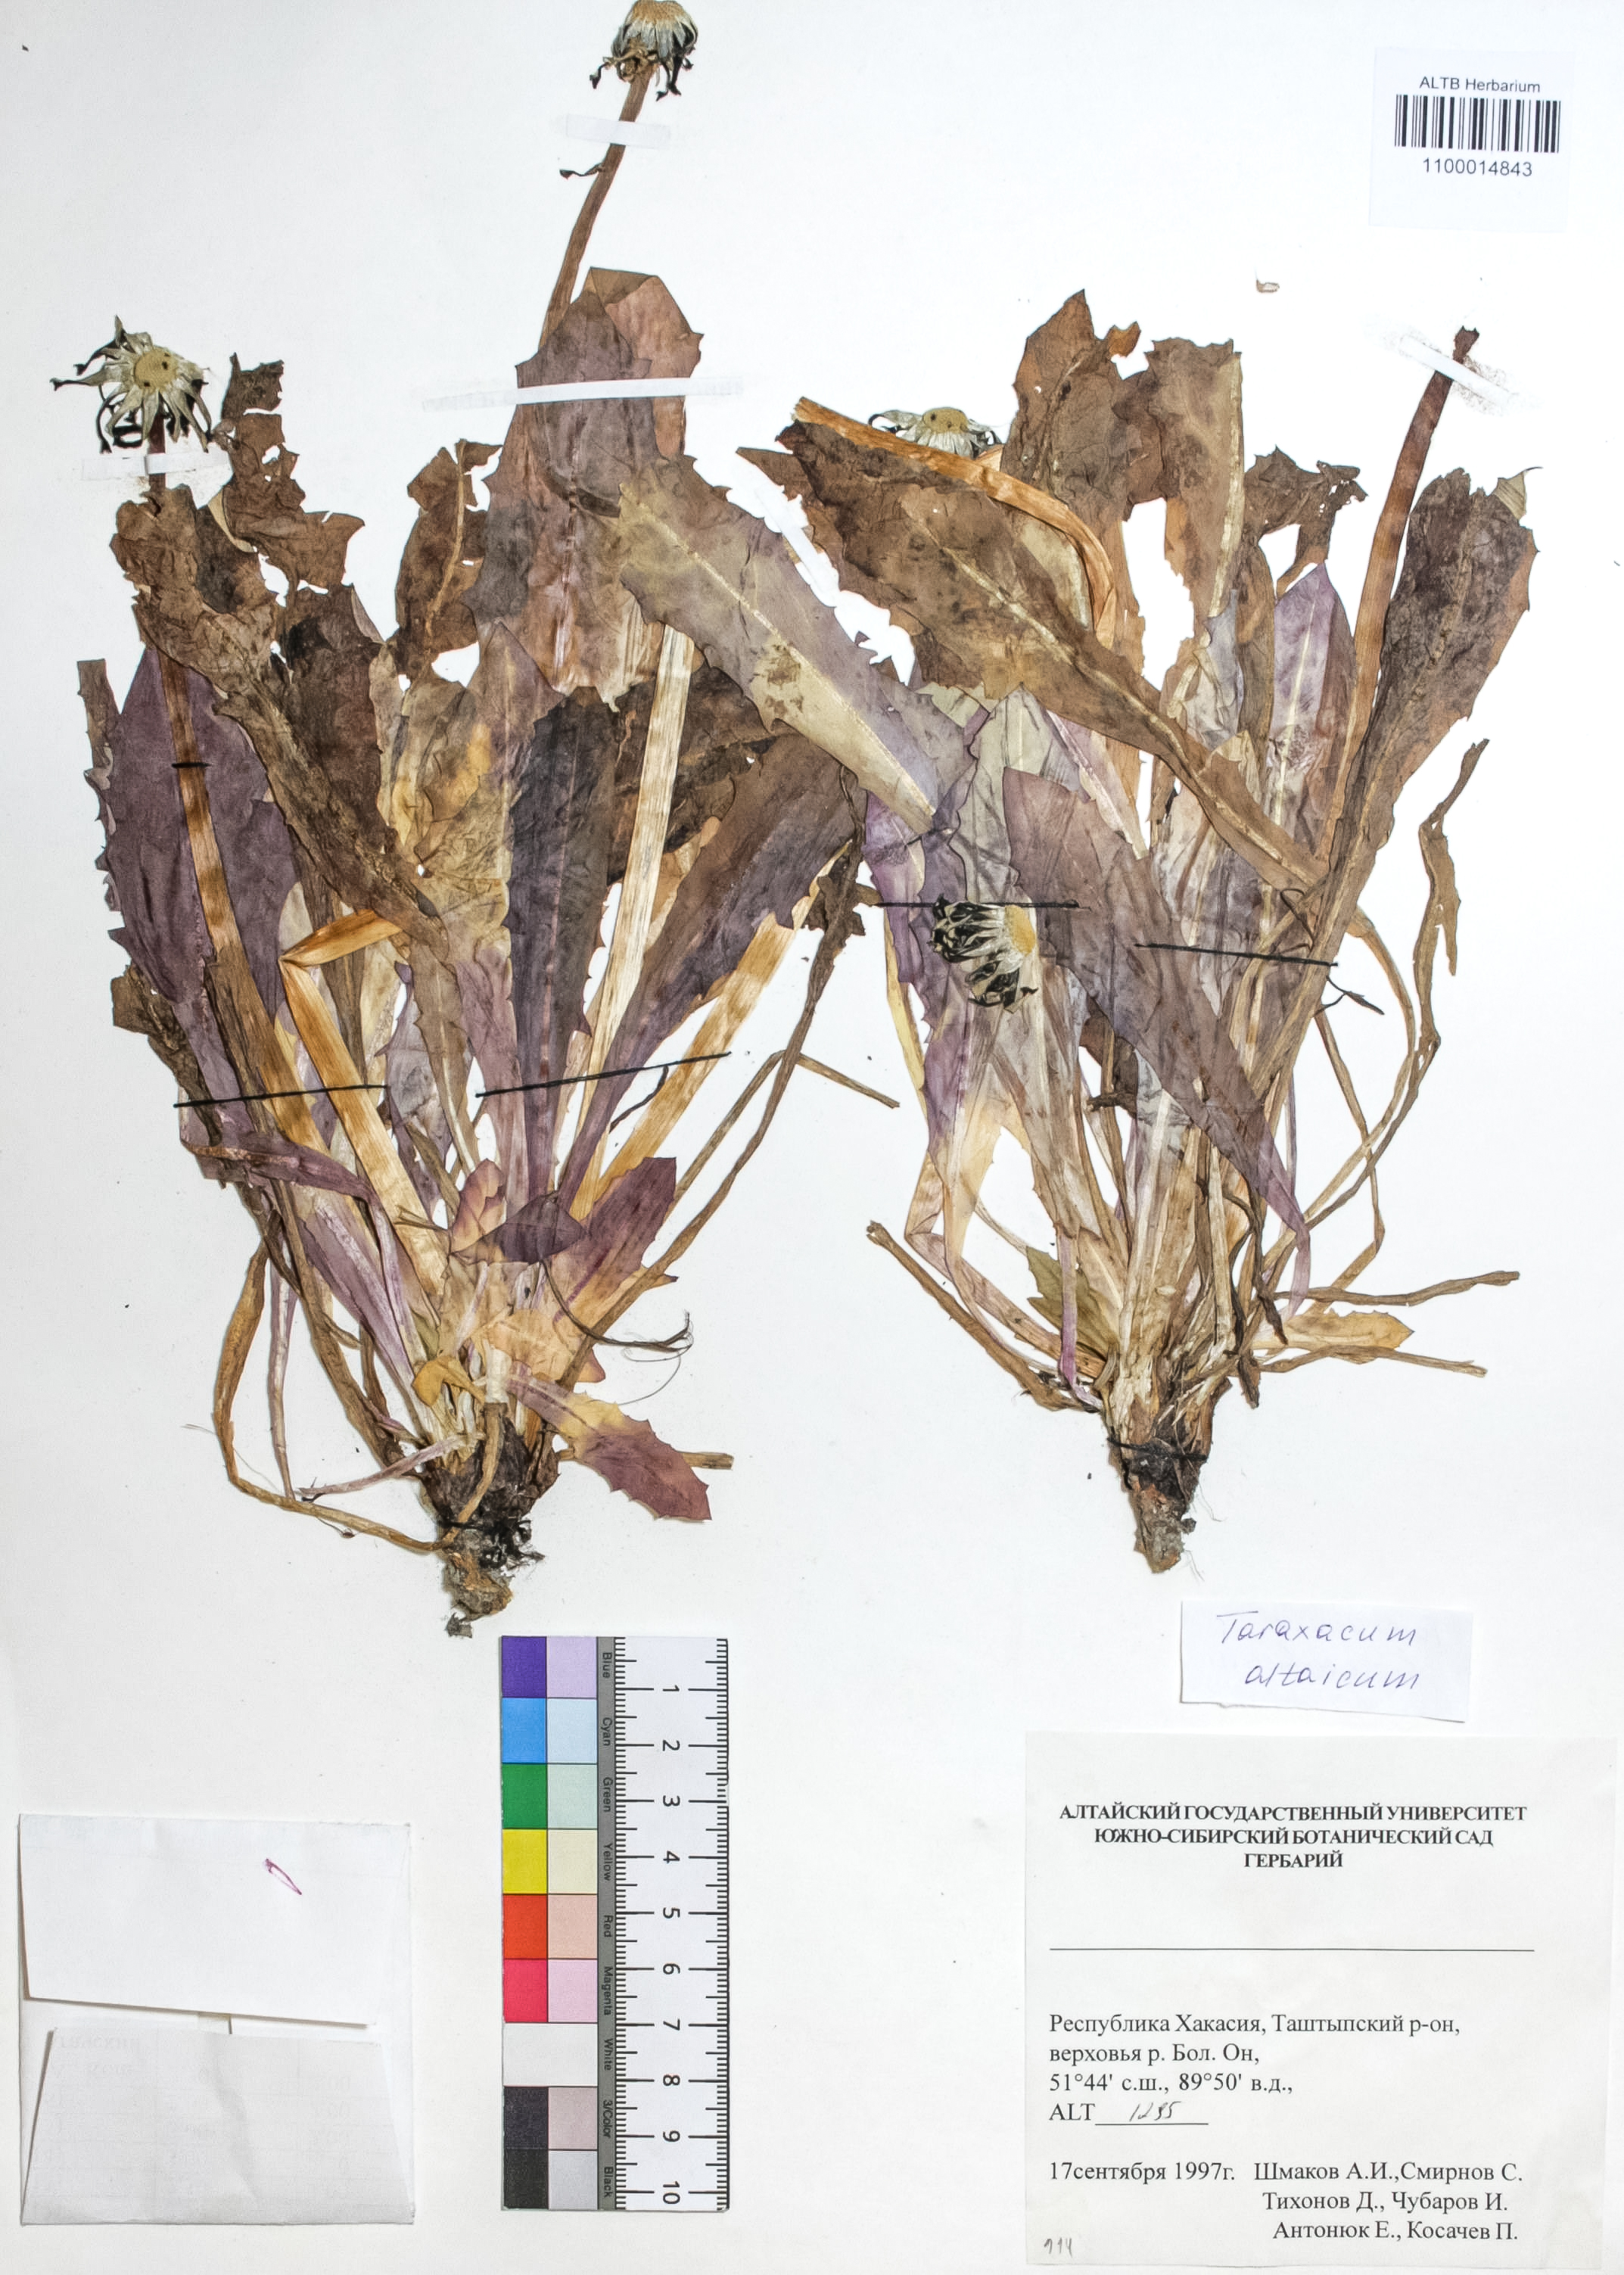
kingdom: Plantae
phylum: Tracheophyta
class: Magnoliopsida
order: Asterales
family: Asteraceae
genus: Taraxacum
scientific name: Taraxacum ceratophorum
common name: Horn-bearing dandelion
